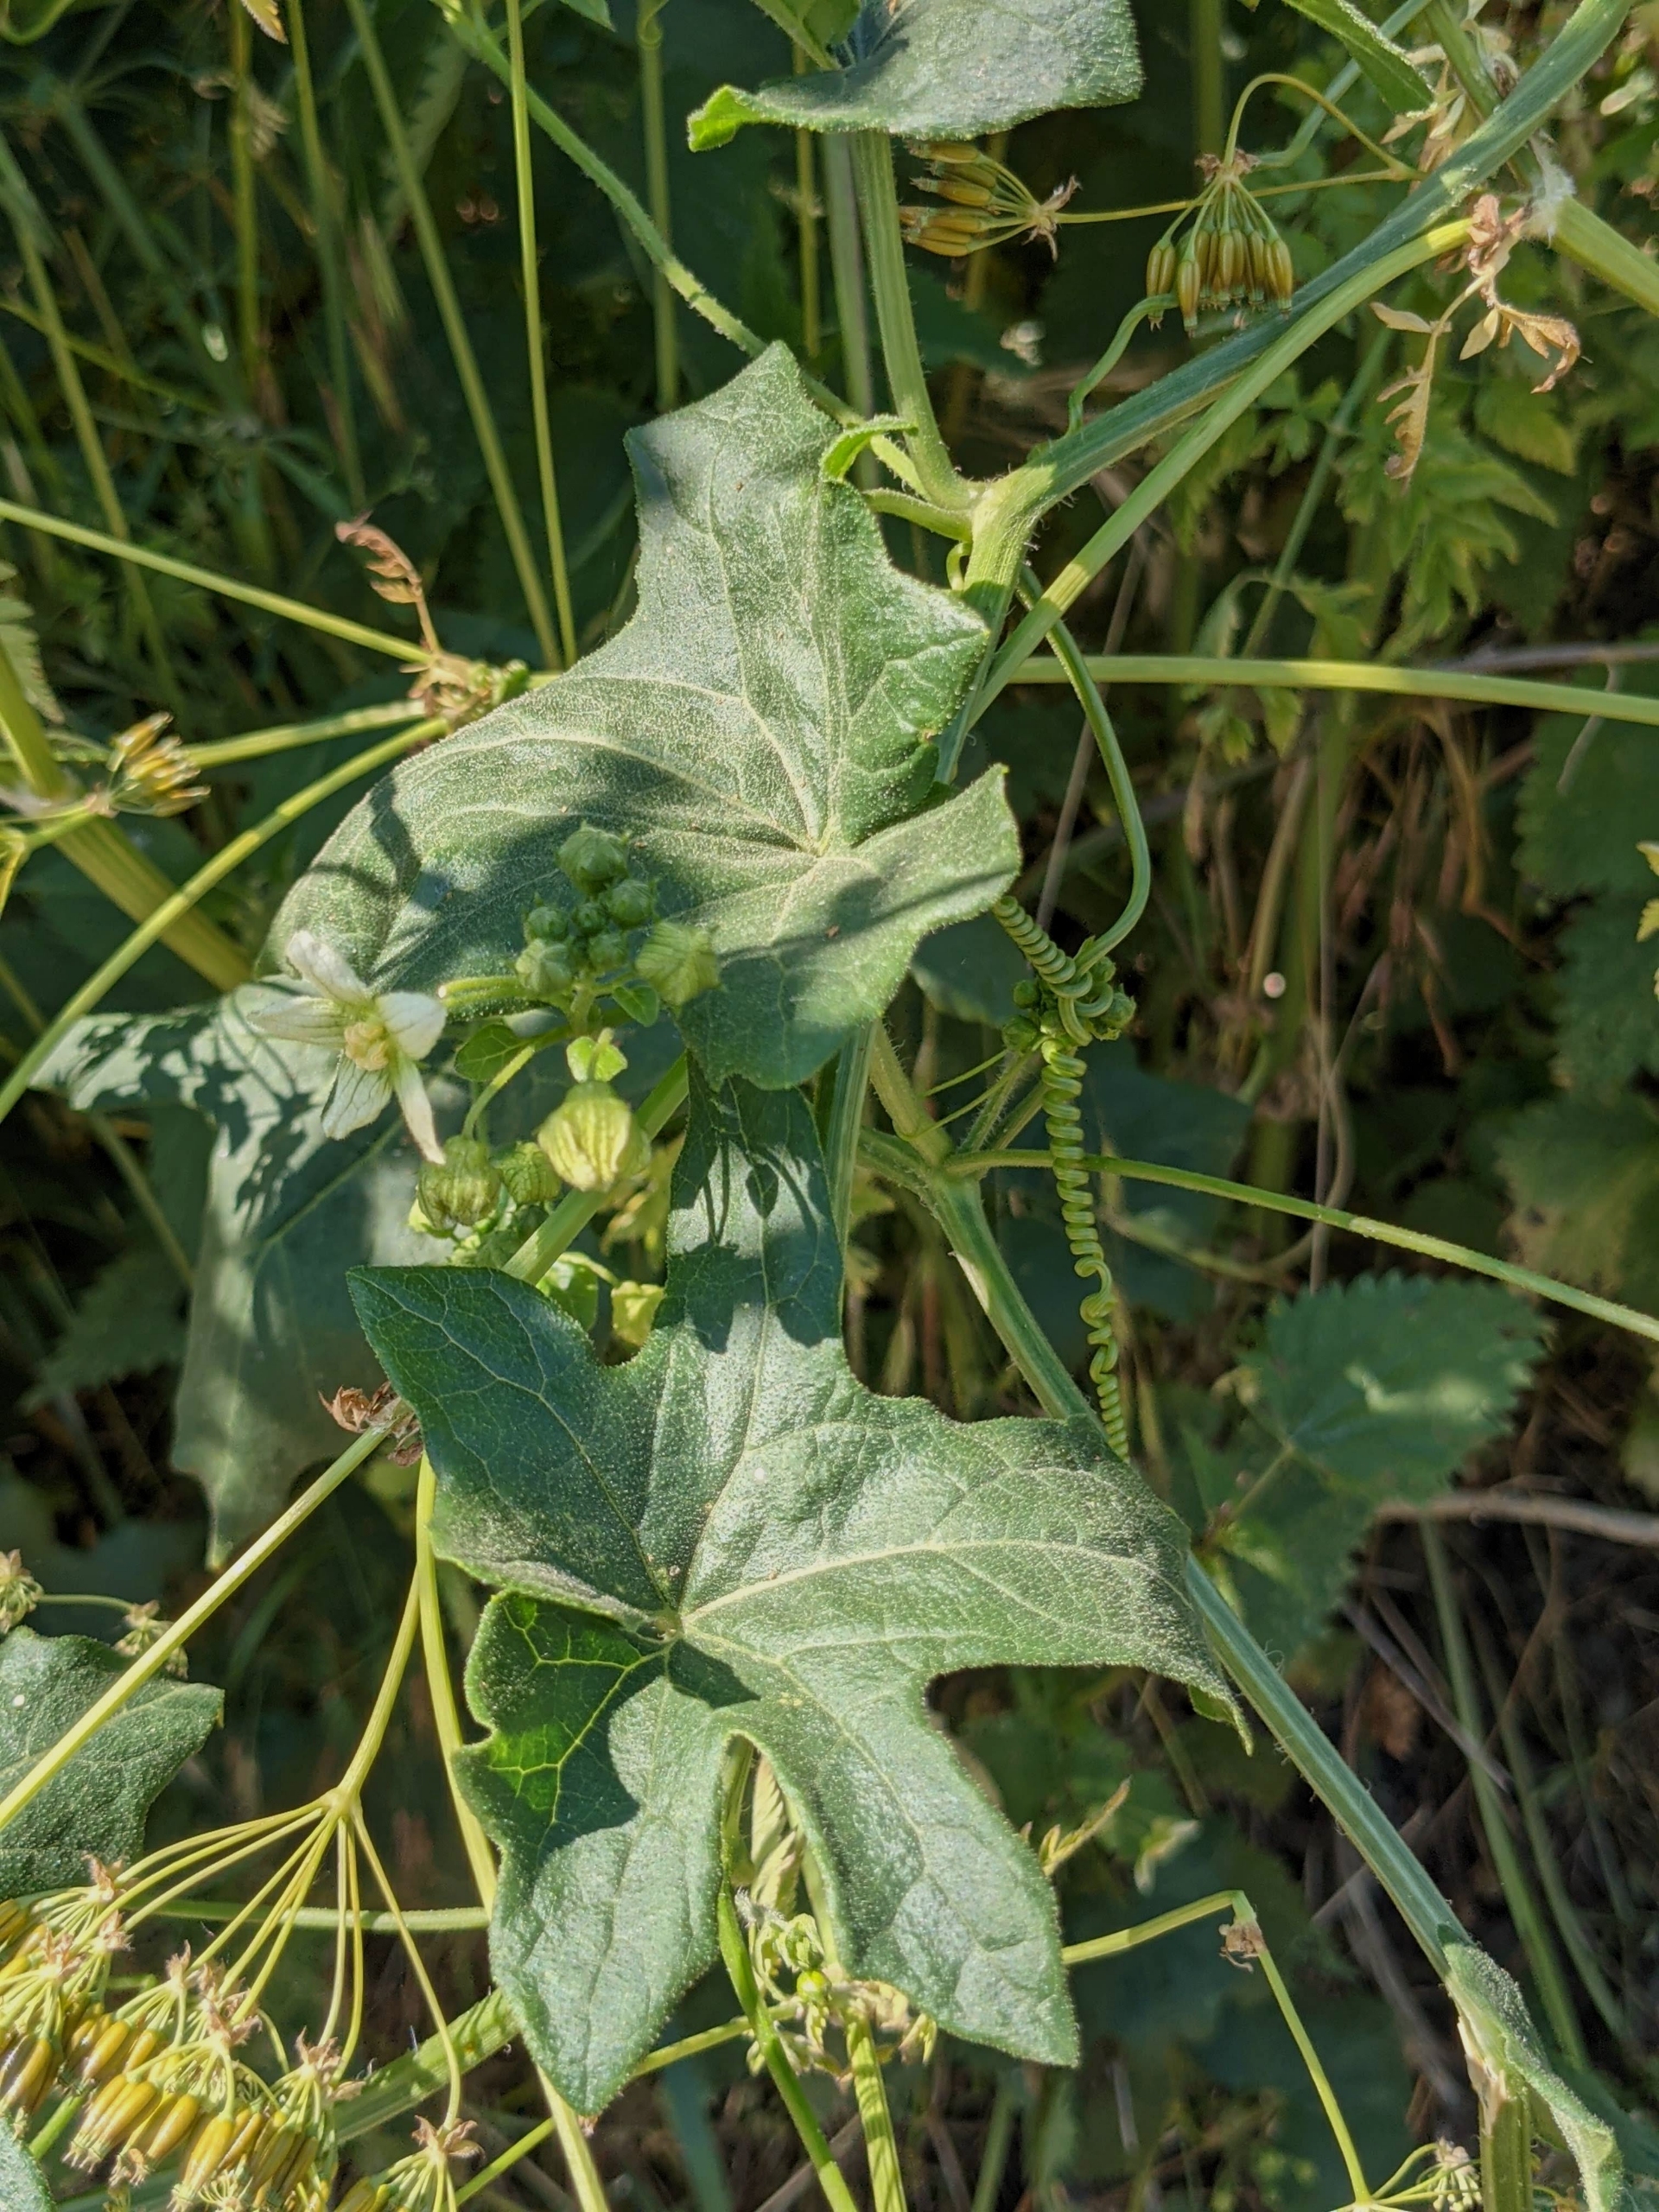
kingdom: Plantae
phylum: Tracheophyta
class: Magnoliopsida
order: Cucurbitales
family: Cucurbitaceae
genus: Bryonia
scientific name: Bryonia dioica
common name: Tvebo galdebær
